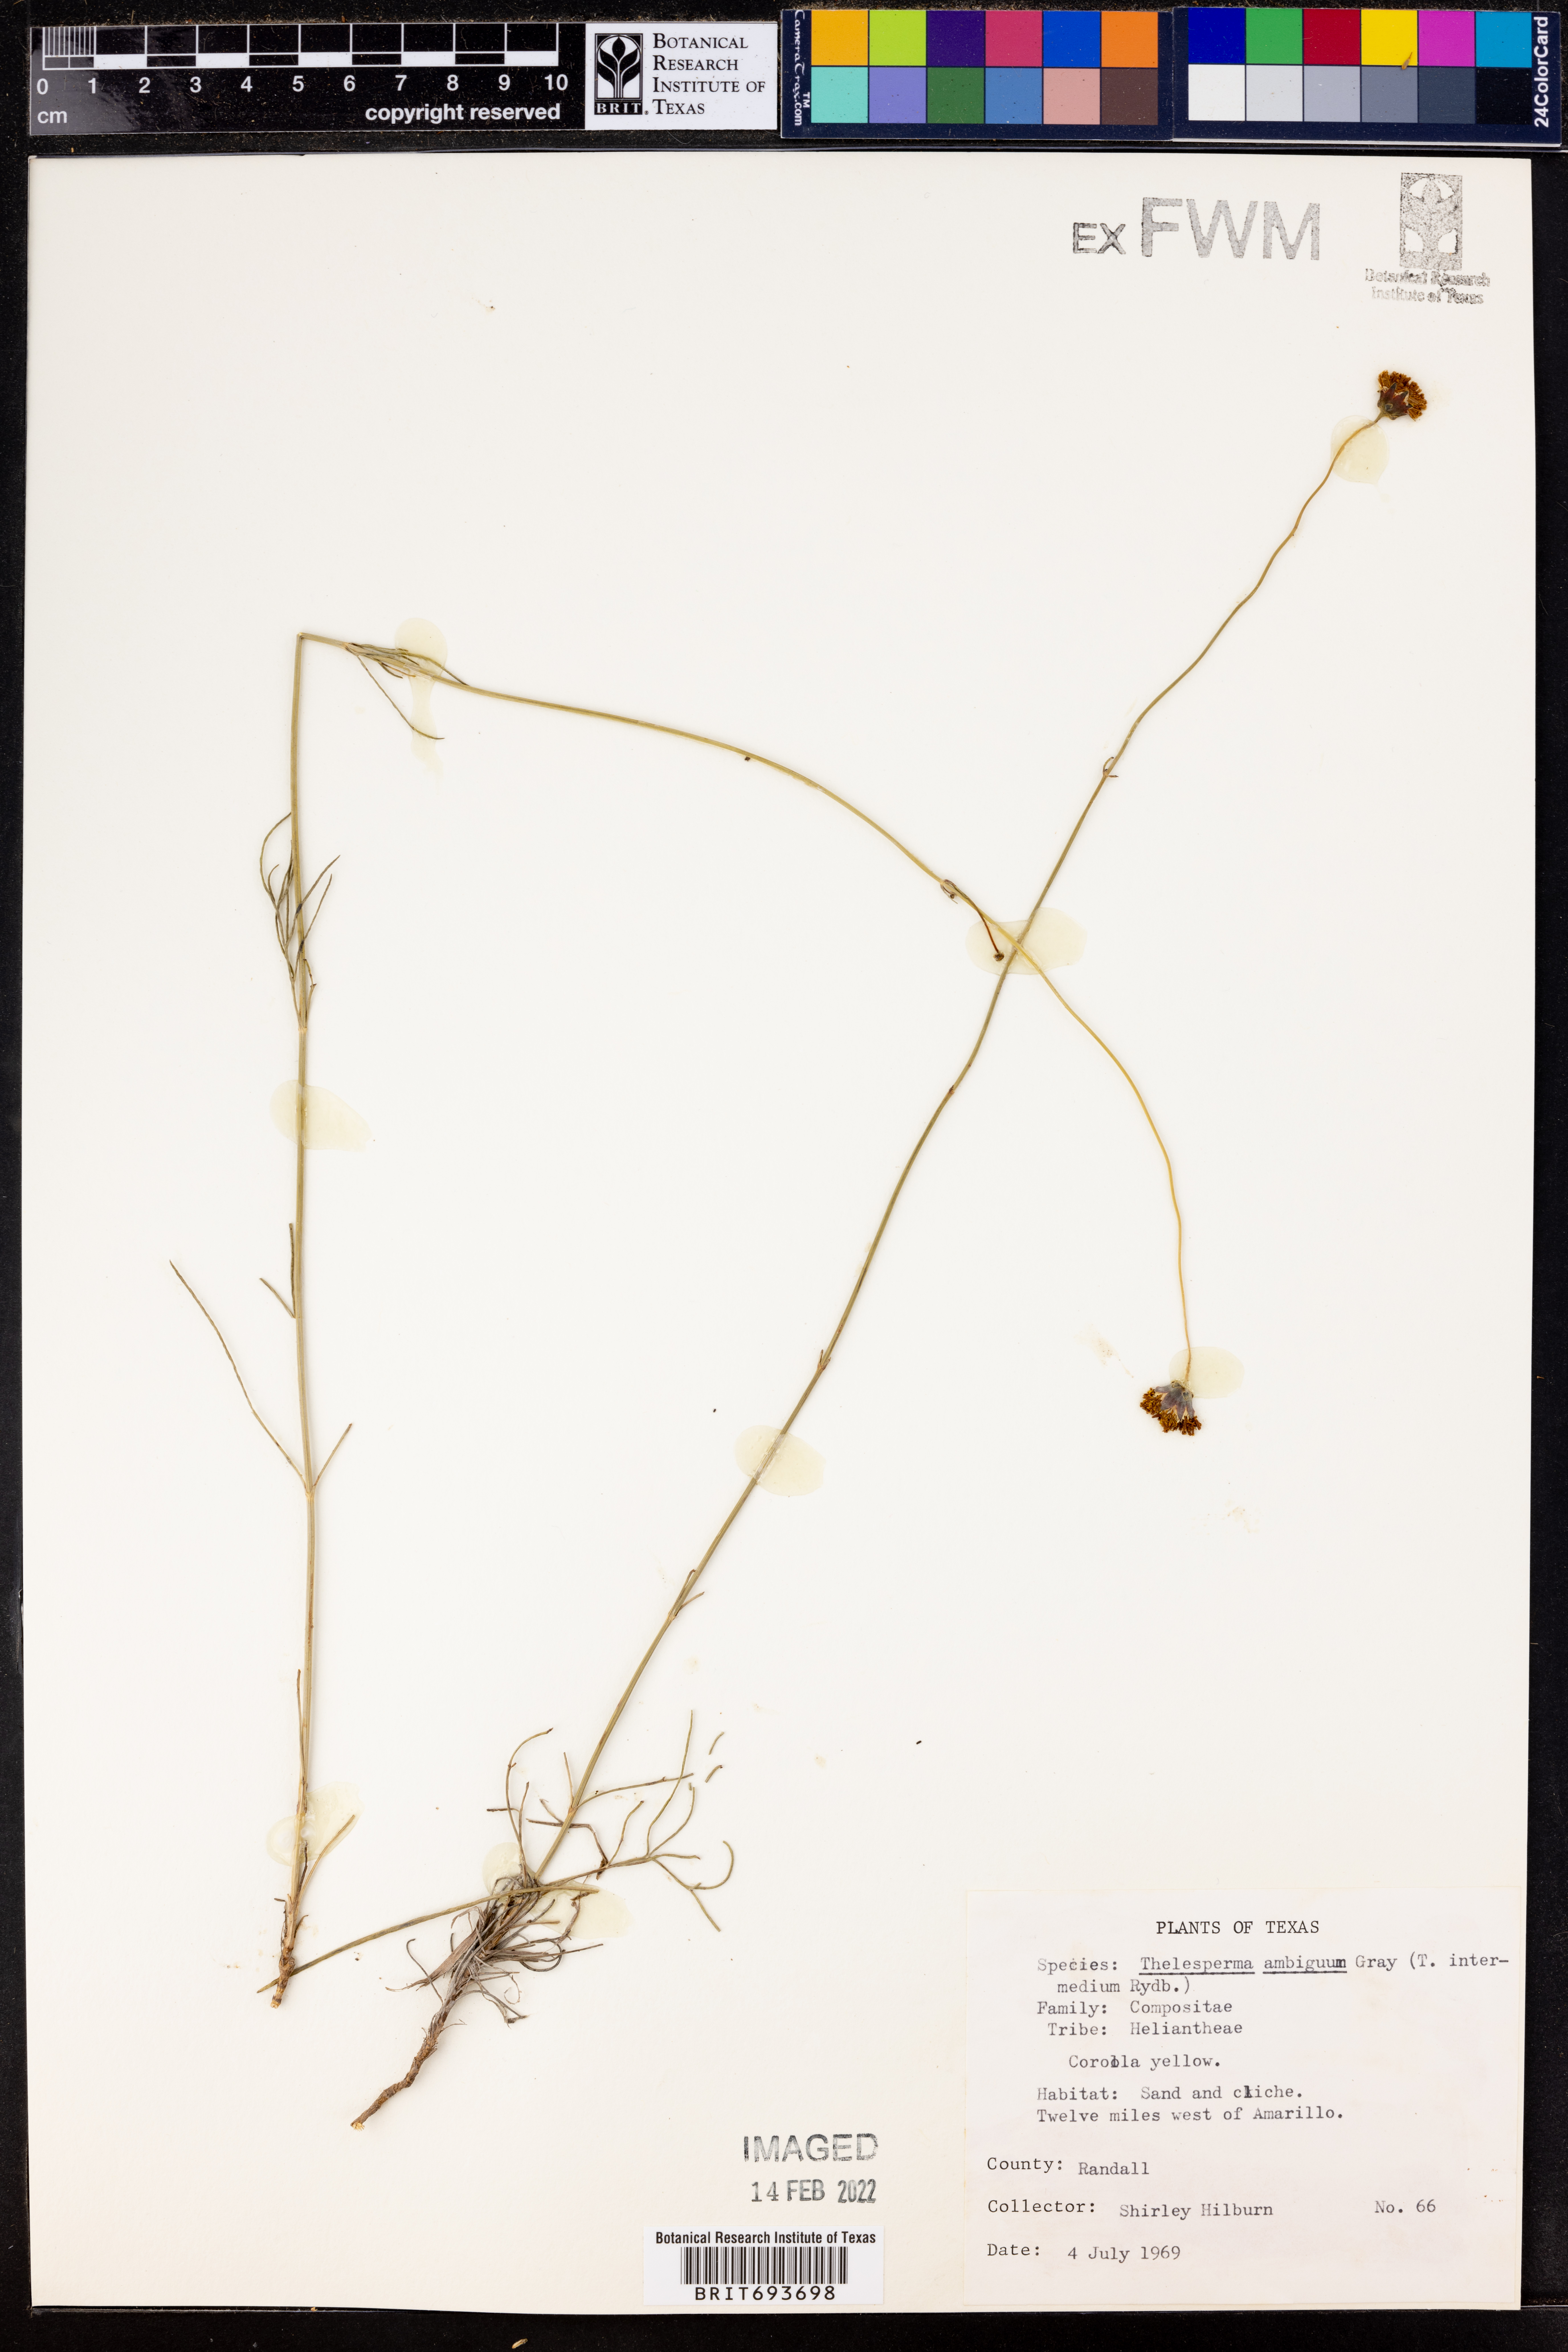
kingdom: Plantae
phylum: Tracheophyta
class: Magnoliopsida
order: Asterales
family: Asteraceae
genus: Thelesperma
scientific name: Thelesperma ambiguum
